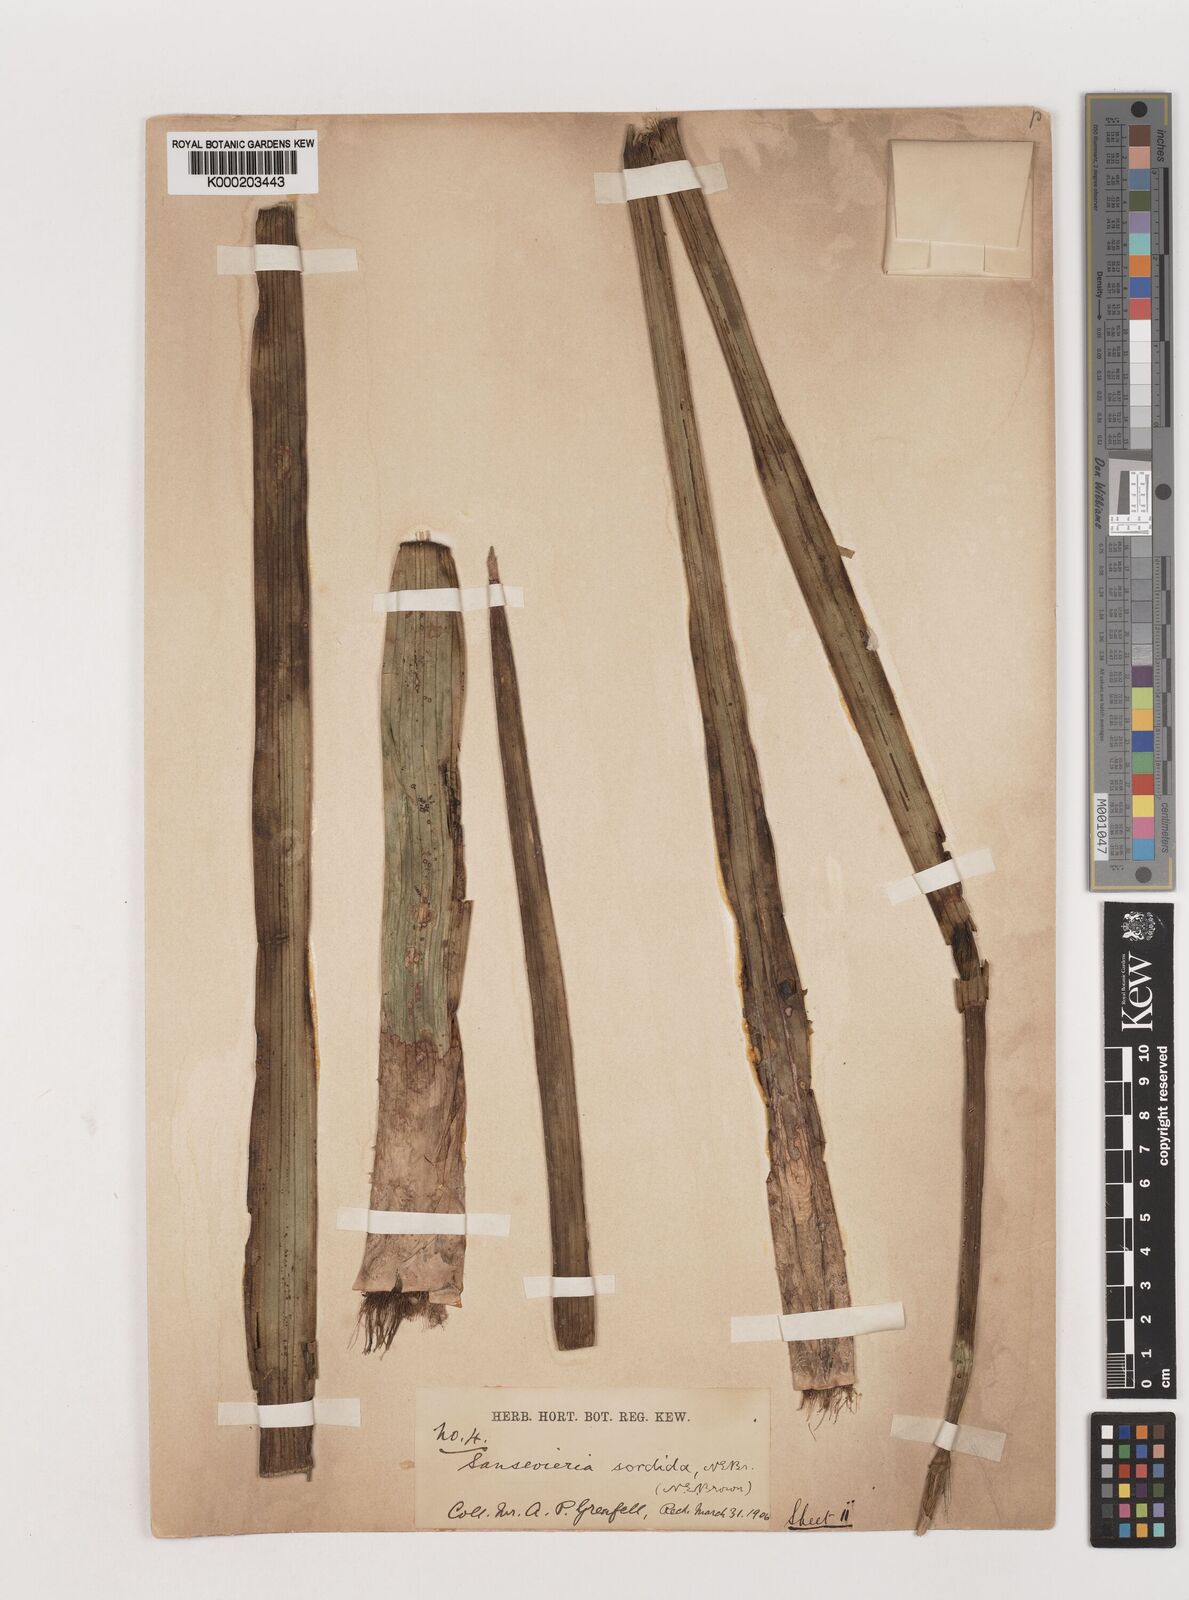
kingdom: Plantae
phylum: Tracheophyta
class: Liliopsida
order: Asparagales
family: Asparagaceae
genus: Dracaena
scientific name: Dracaena varians
